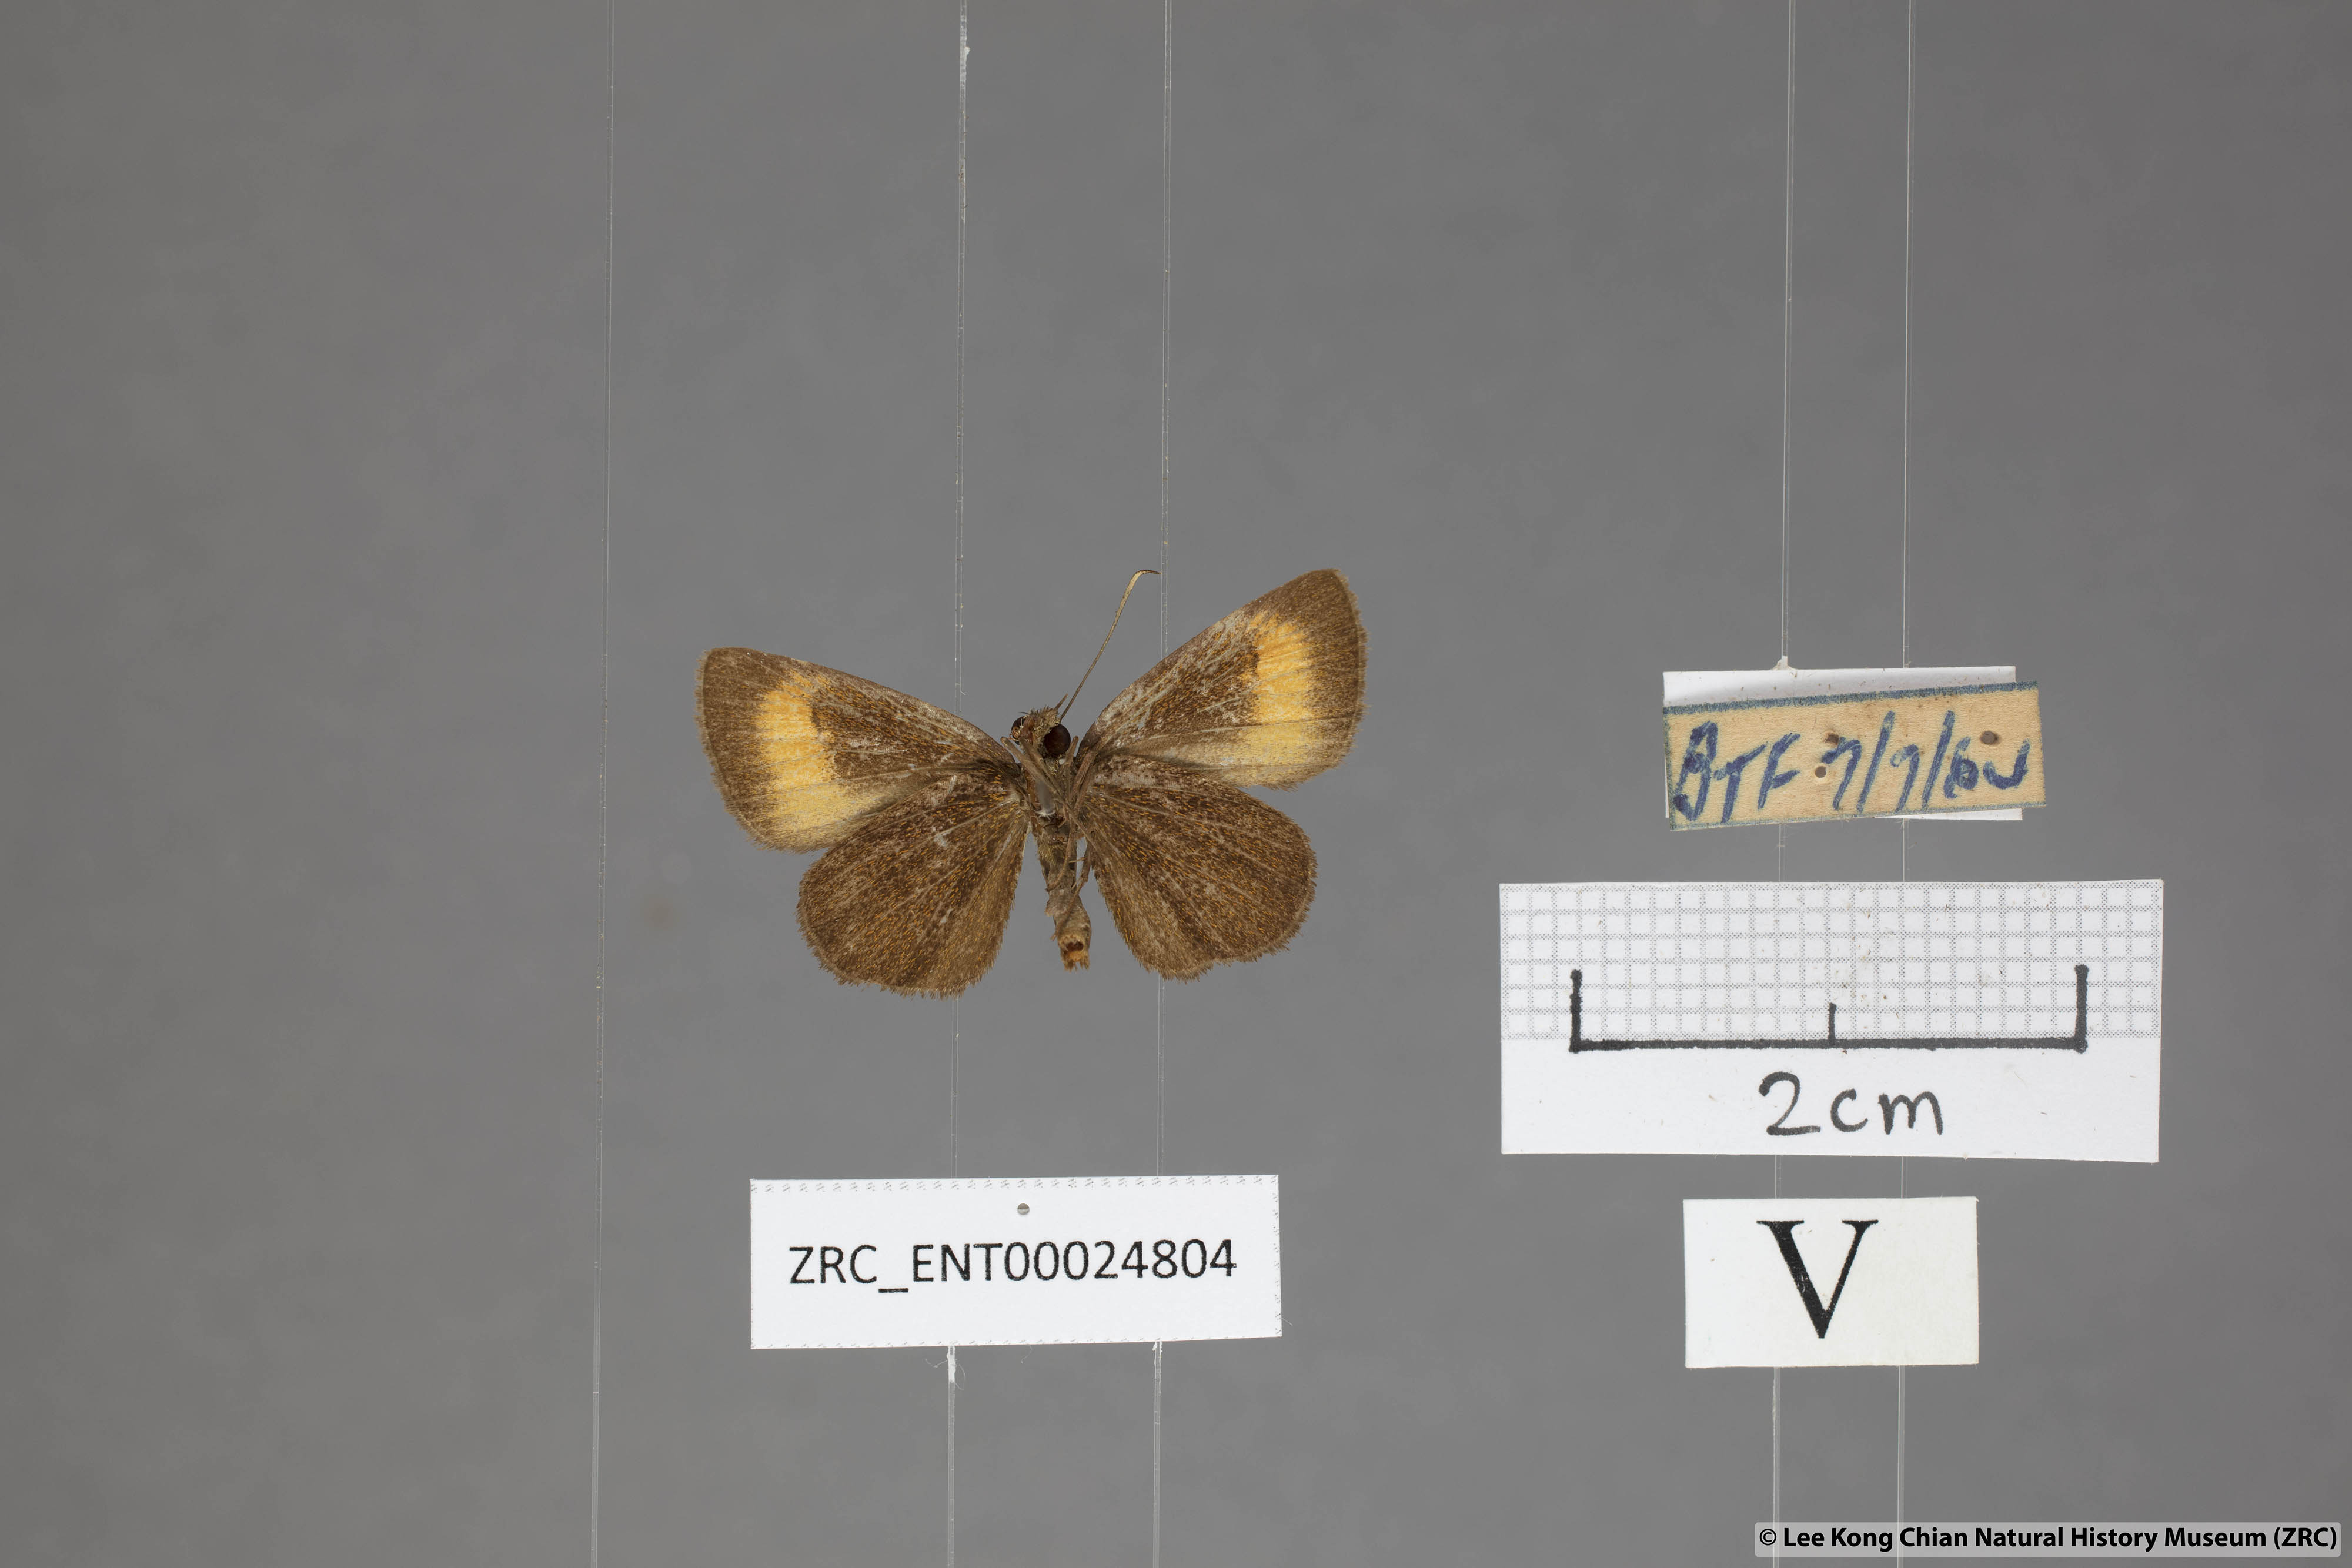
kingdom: Animalia
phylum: Arthropoda
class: Insecta
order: Lepidoptera
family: Hesperiidae
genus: Iambrix
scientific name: Iambrix Idmon obliquans
